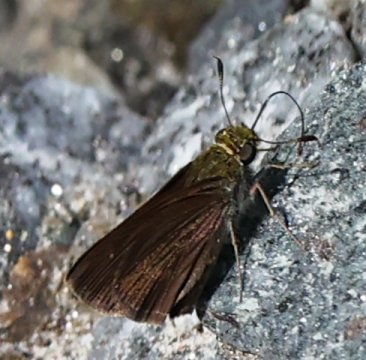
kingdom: Animalia
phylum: Arthropoda
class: Insecta
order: Lepidoptera
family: Hesperiidae
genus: Euphyes
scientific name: Euphyes vestris
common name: Dun Skipper
